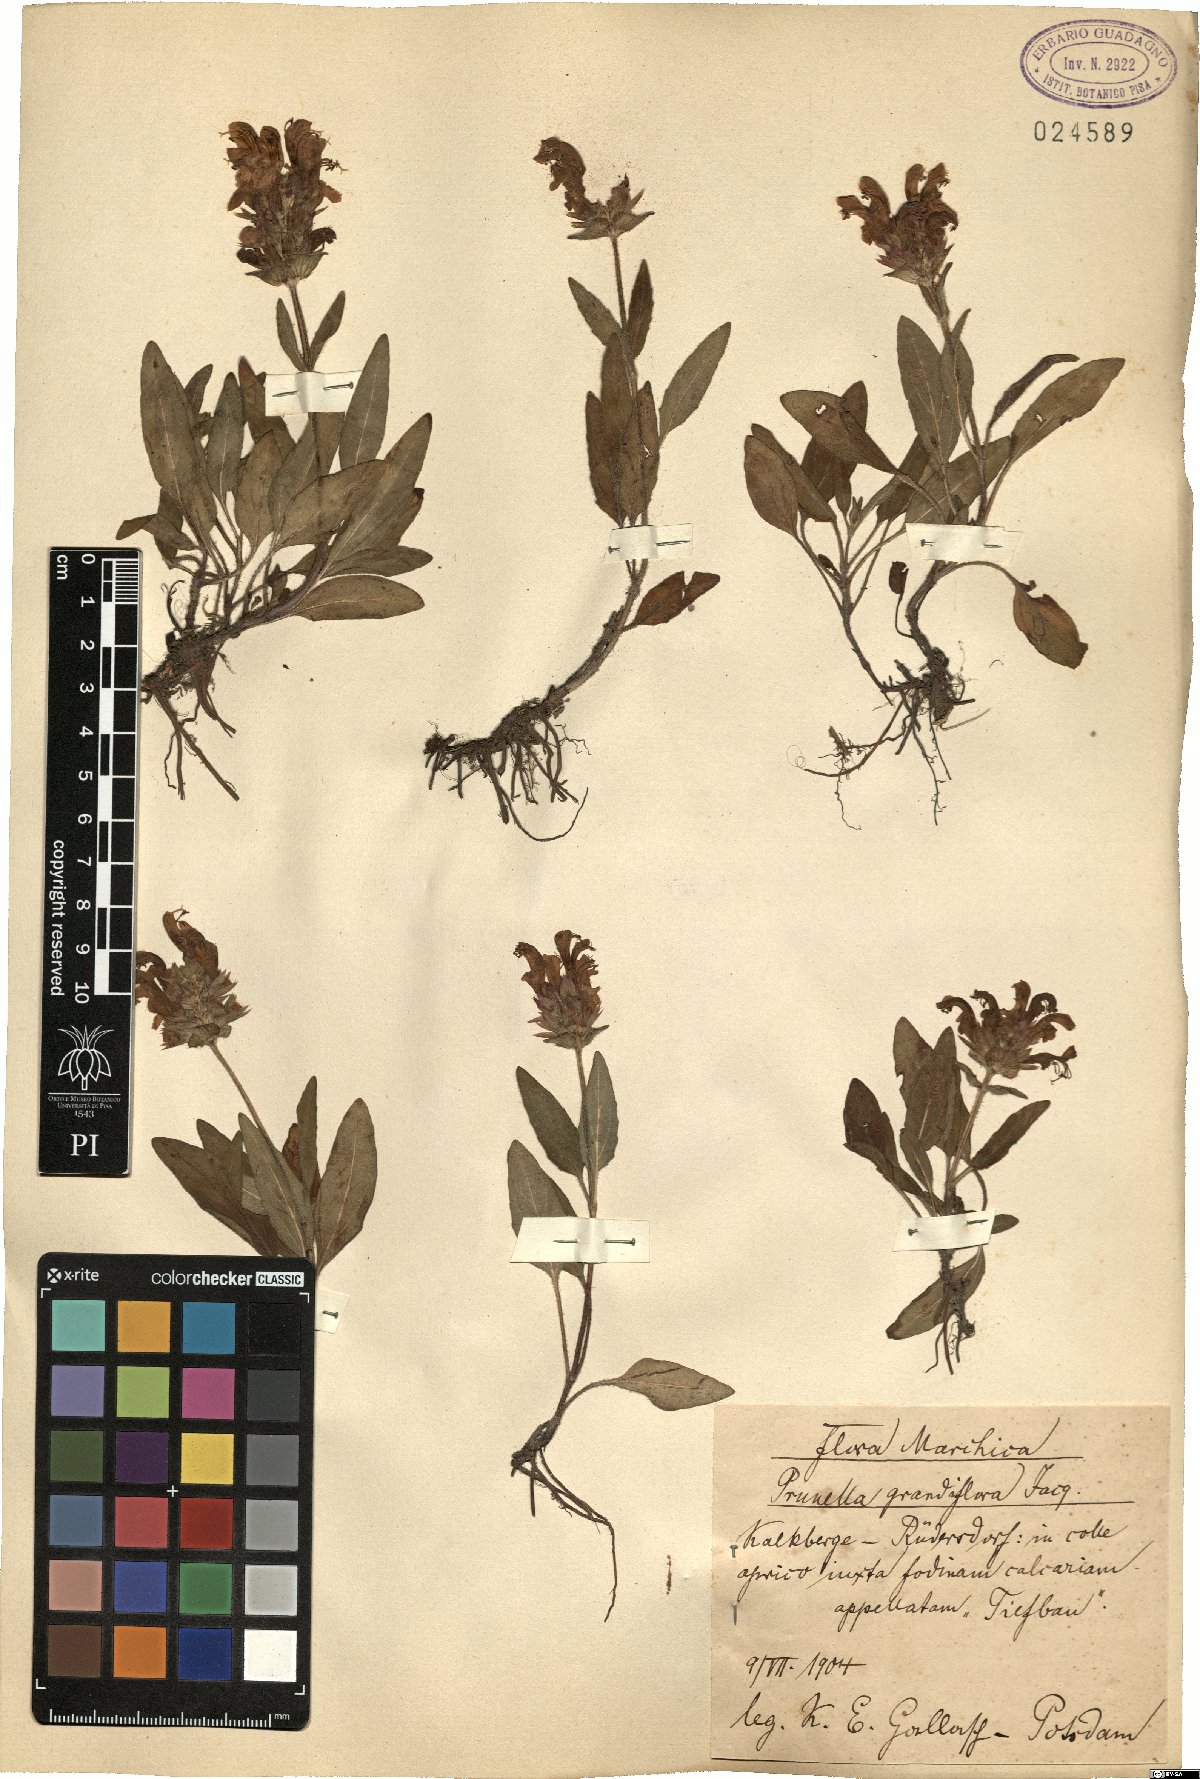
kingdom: Plantae
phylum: Tracheophyta
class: Magnoliopsida
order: Lamiales
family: Lamiaceae
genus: Scutellaria
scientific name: Scutellaria grandiflora
